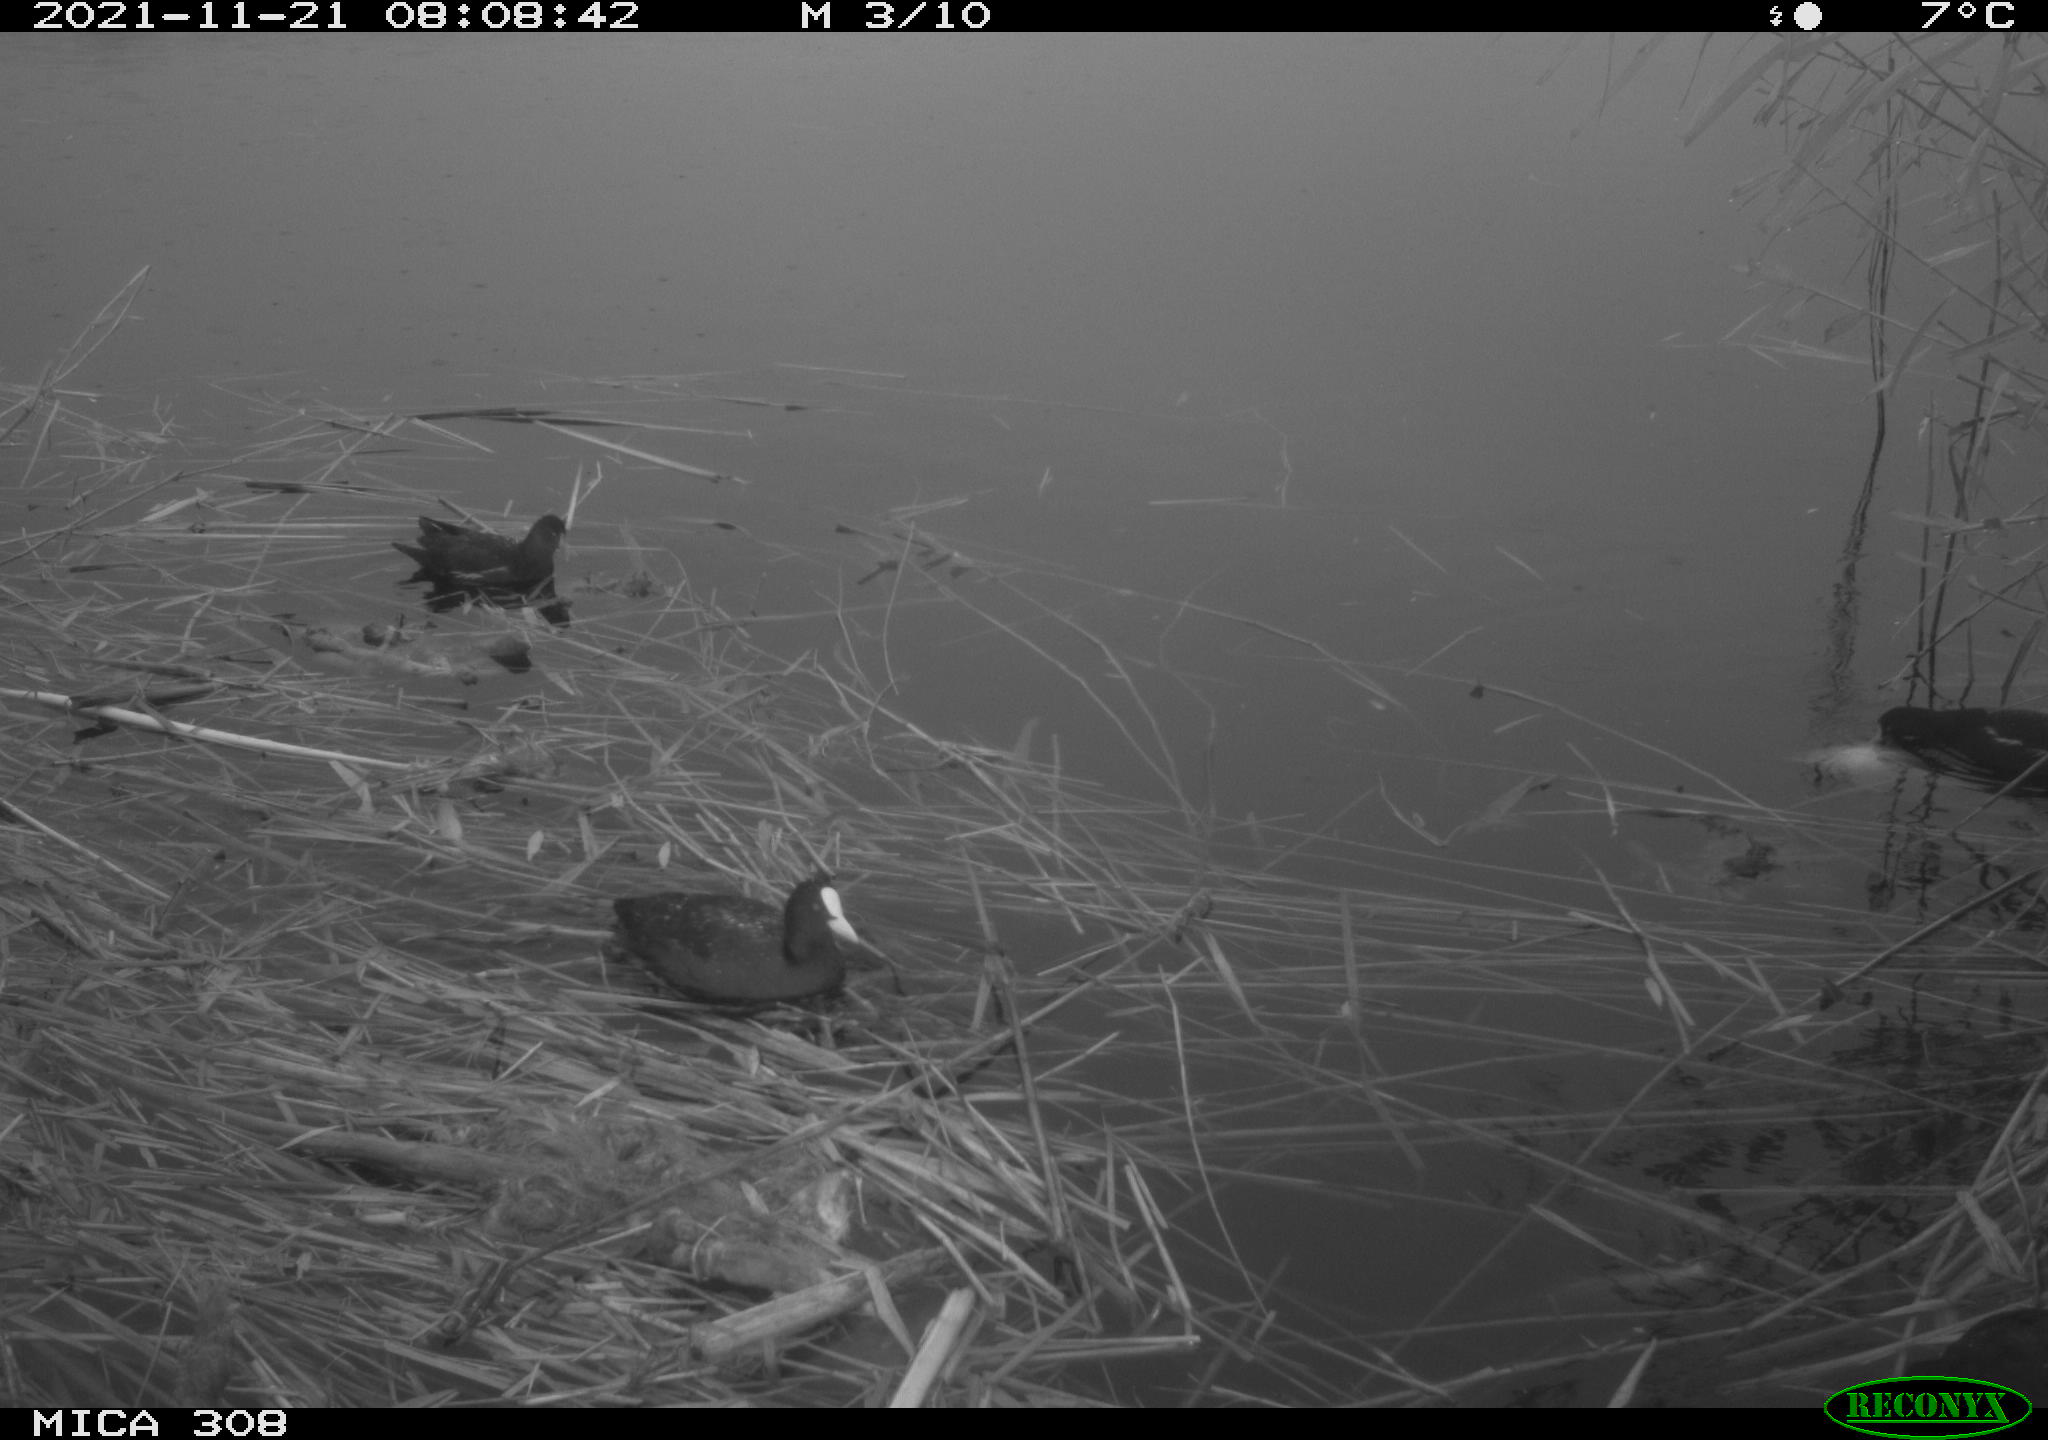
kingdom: Animalia
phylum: Chordata
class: Aves
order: Gruiformes
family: Rallidae
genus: Gallinula
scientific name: Gallinula chloropus
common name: Common moorhen
